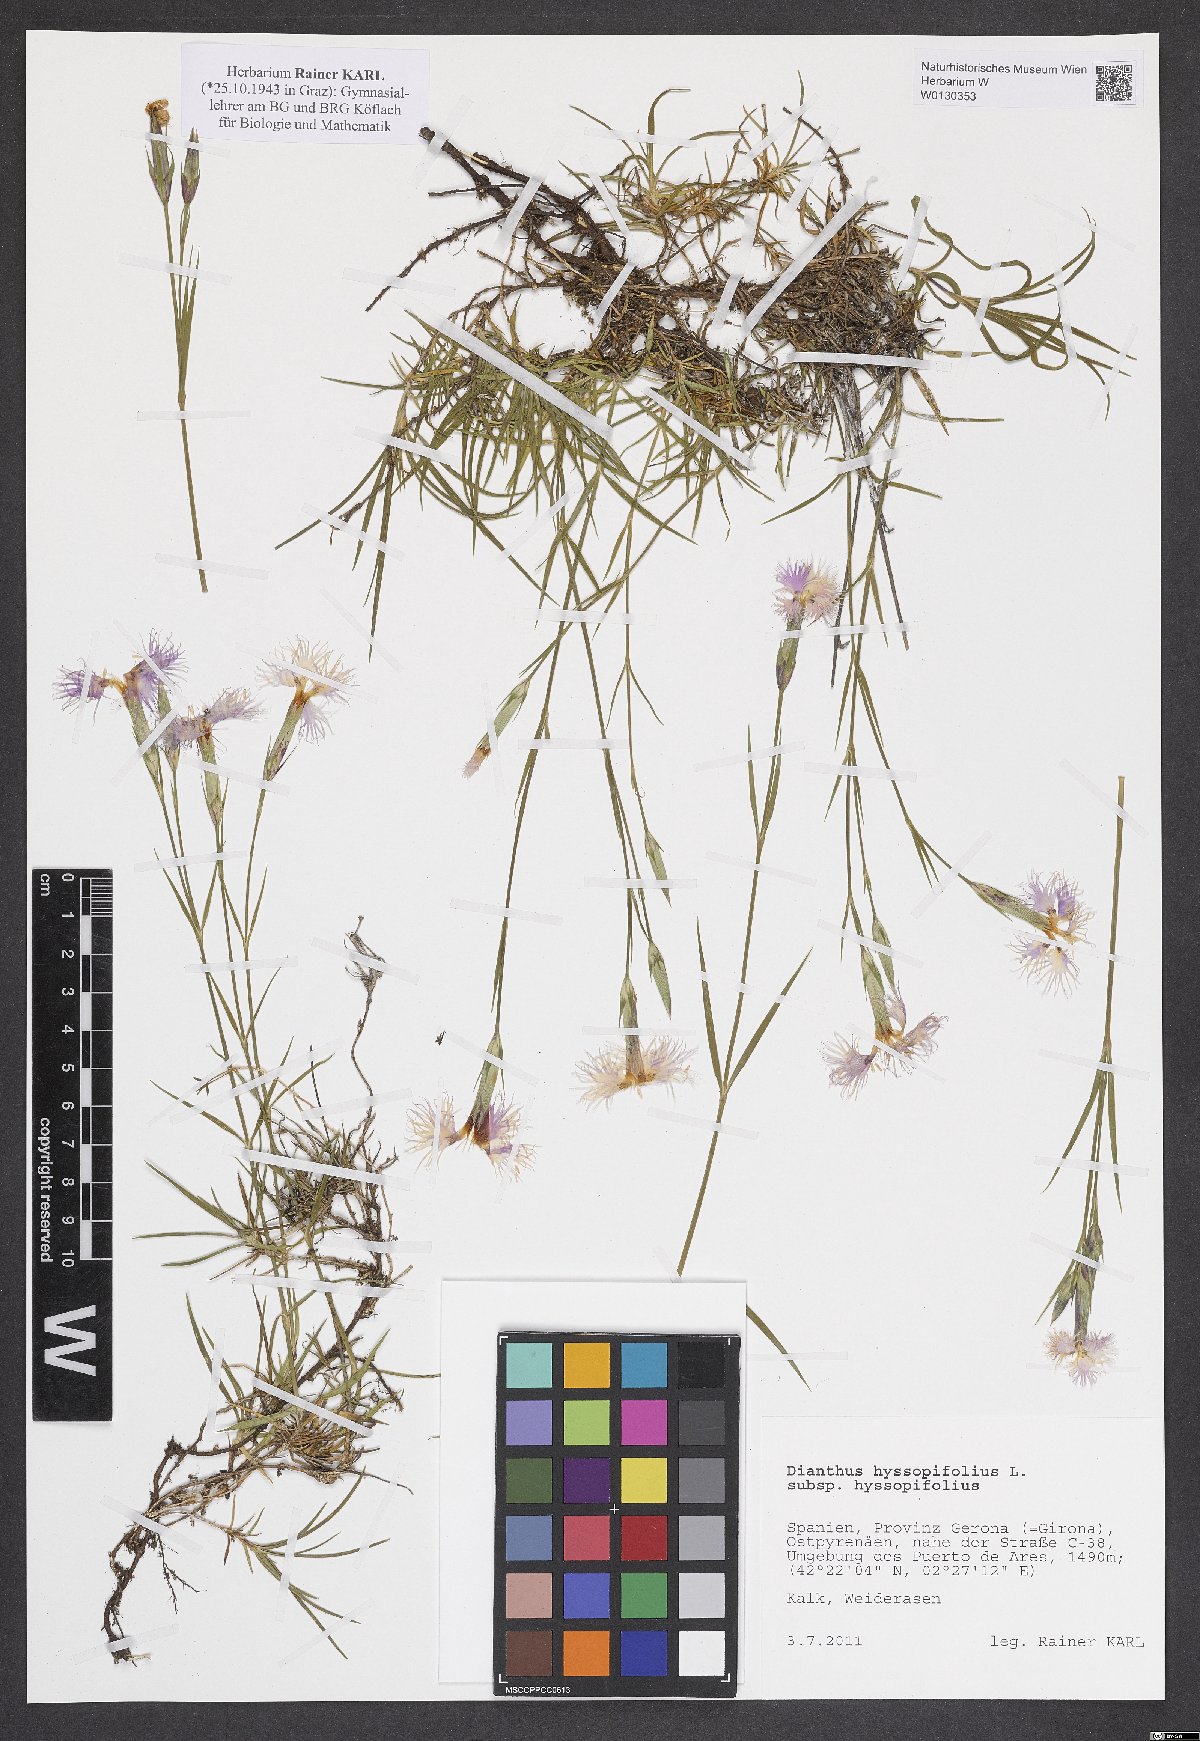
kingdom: Plantae
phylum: Tracheophyta
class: Magnoliopsida
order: Caryophyllales
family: Caryophyllaceae
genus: Dianthus
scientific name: Dianthus hyssopifolius
